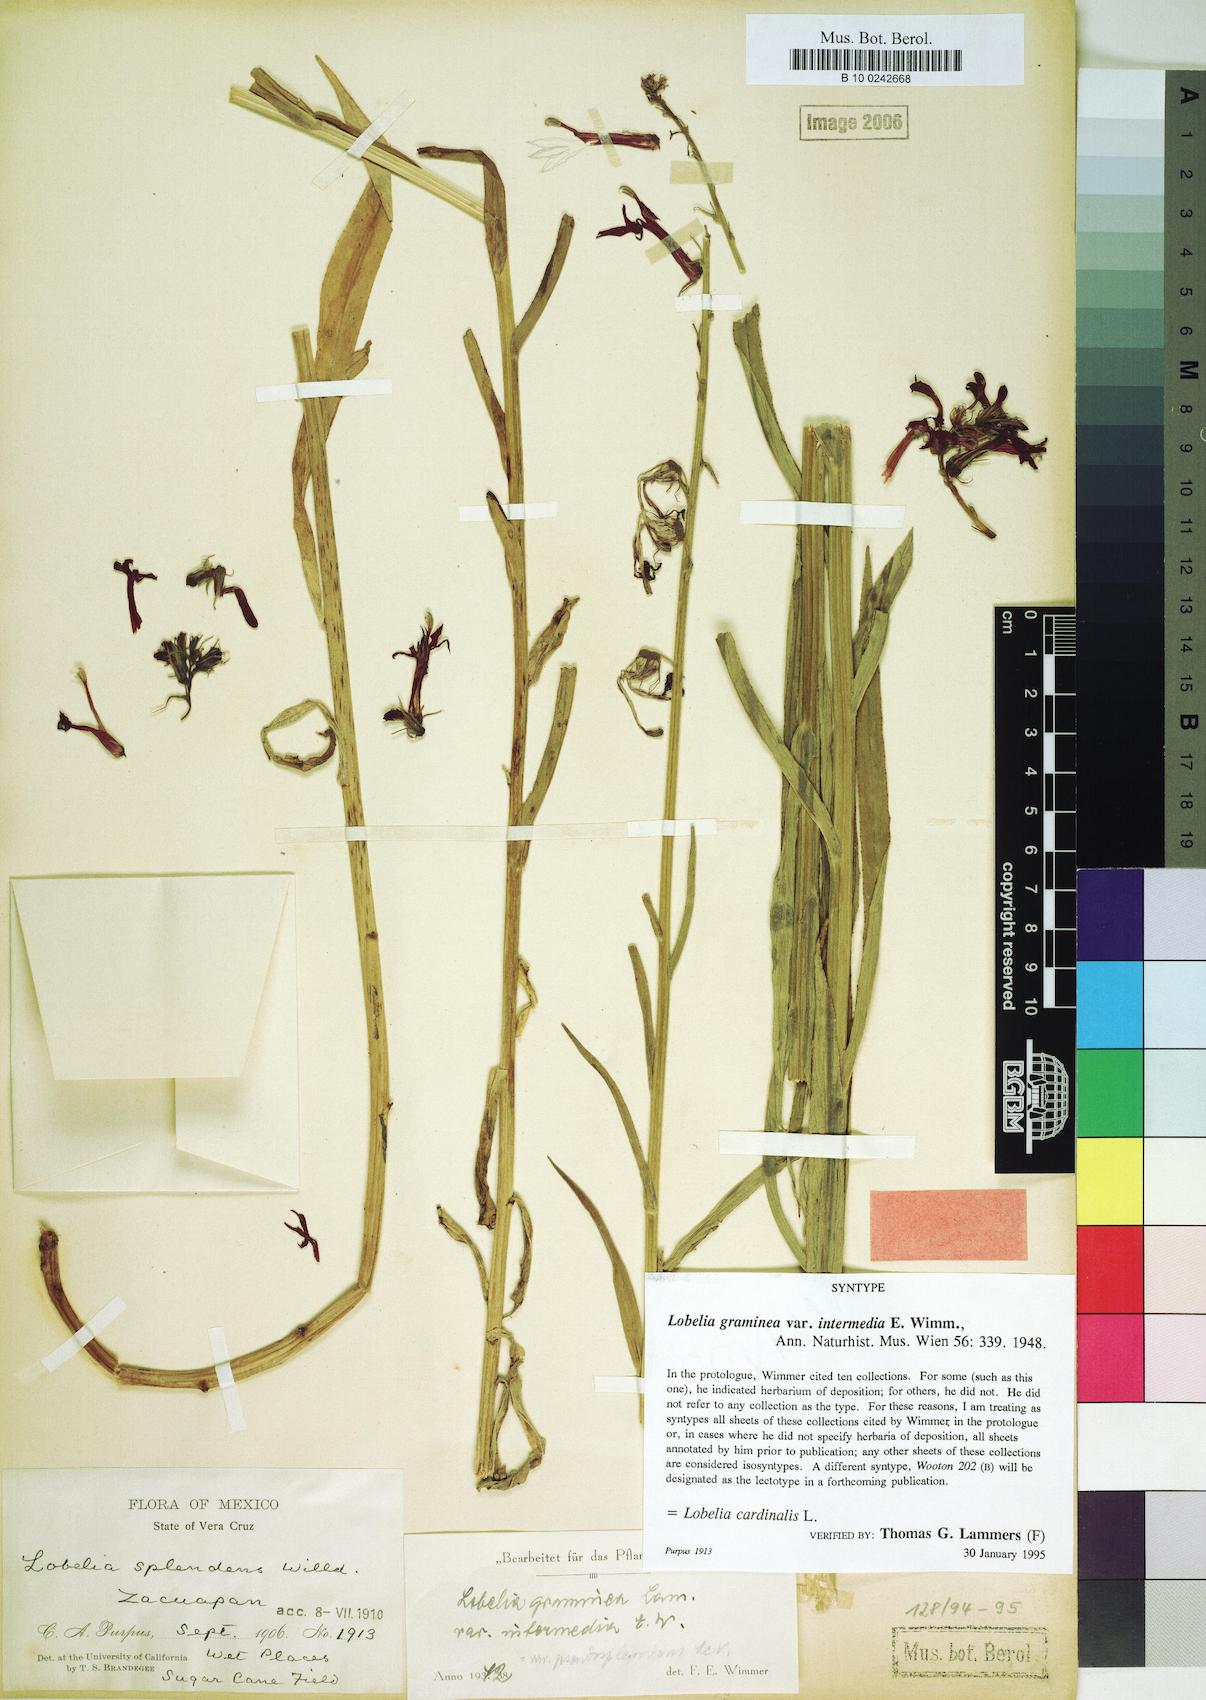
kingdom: Plantae
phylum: Tracheophyta
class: Magnoliopsida
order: Asterales
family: Campanulaceae
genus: Lobelia
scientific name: Lobelia cardinalis
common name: Cardinal flower
